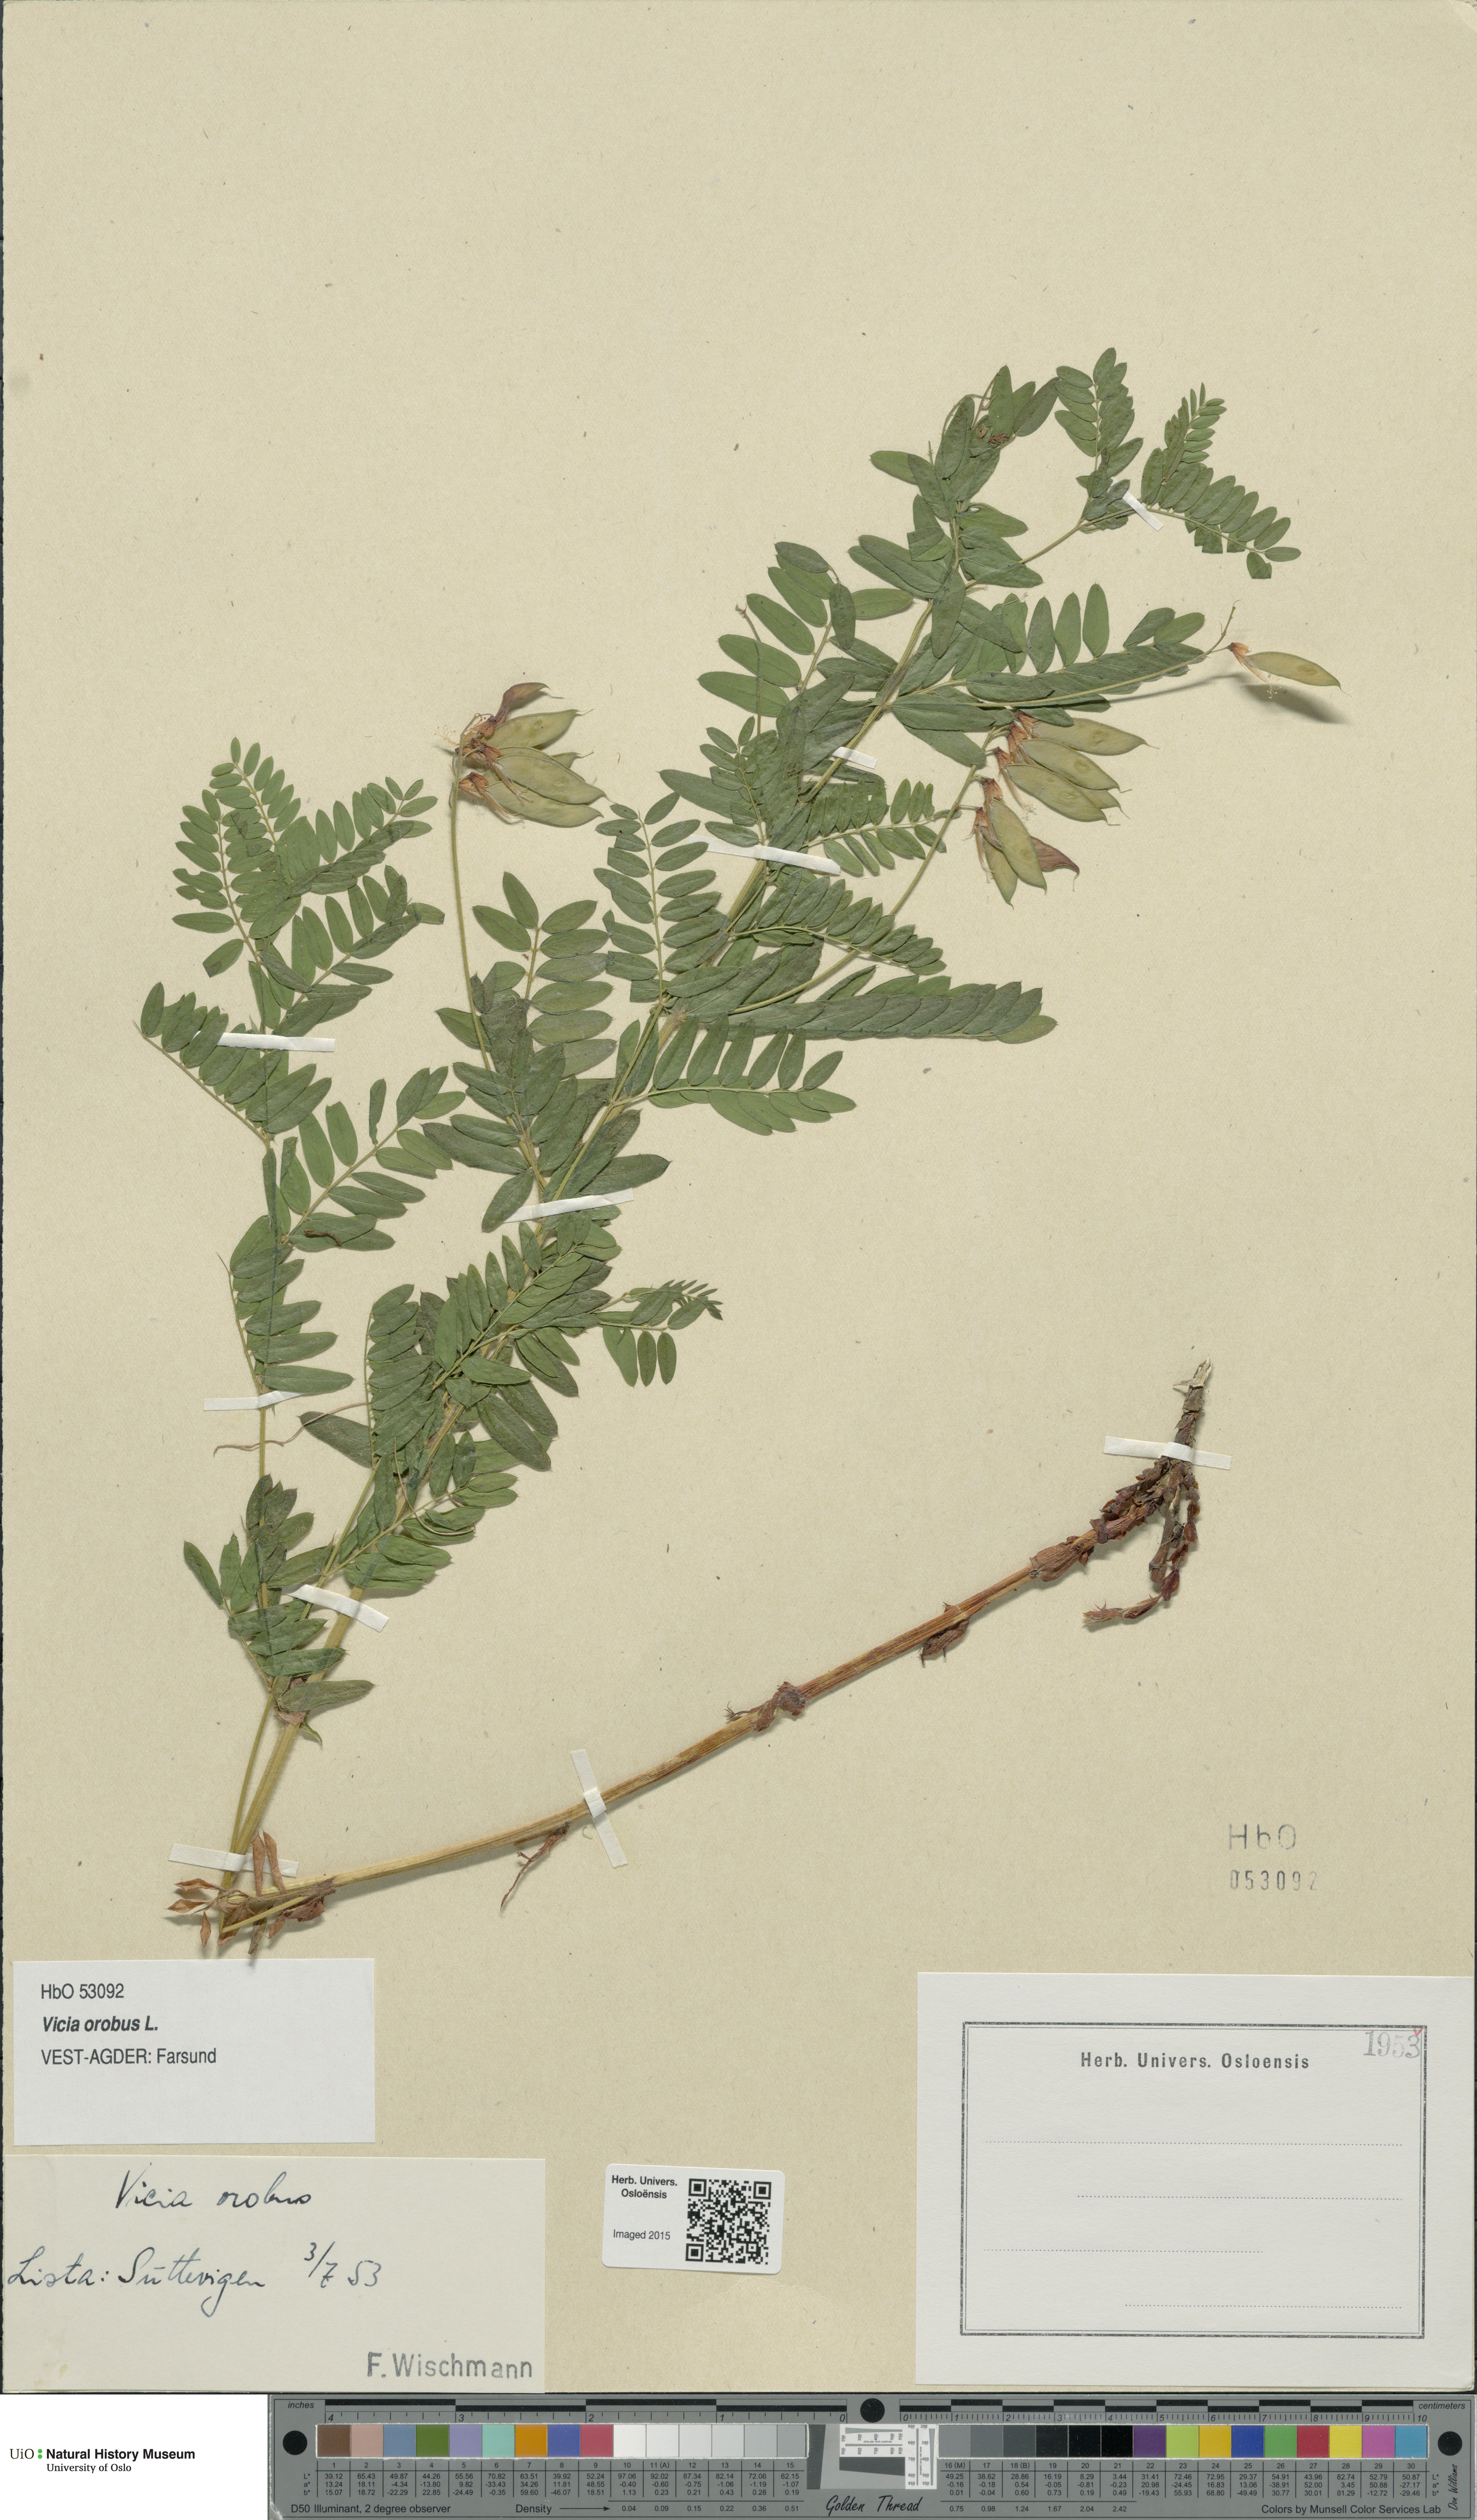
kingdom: Plantae
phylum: Tracheophyta
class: Magnoliopsida
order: Fabales
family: Fabaceae
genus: Vicia
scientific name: Vicia orobus
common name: Wood bitter-vetch
